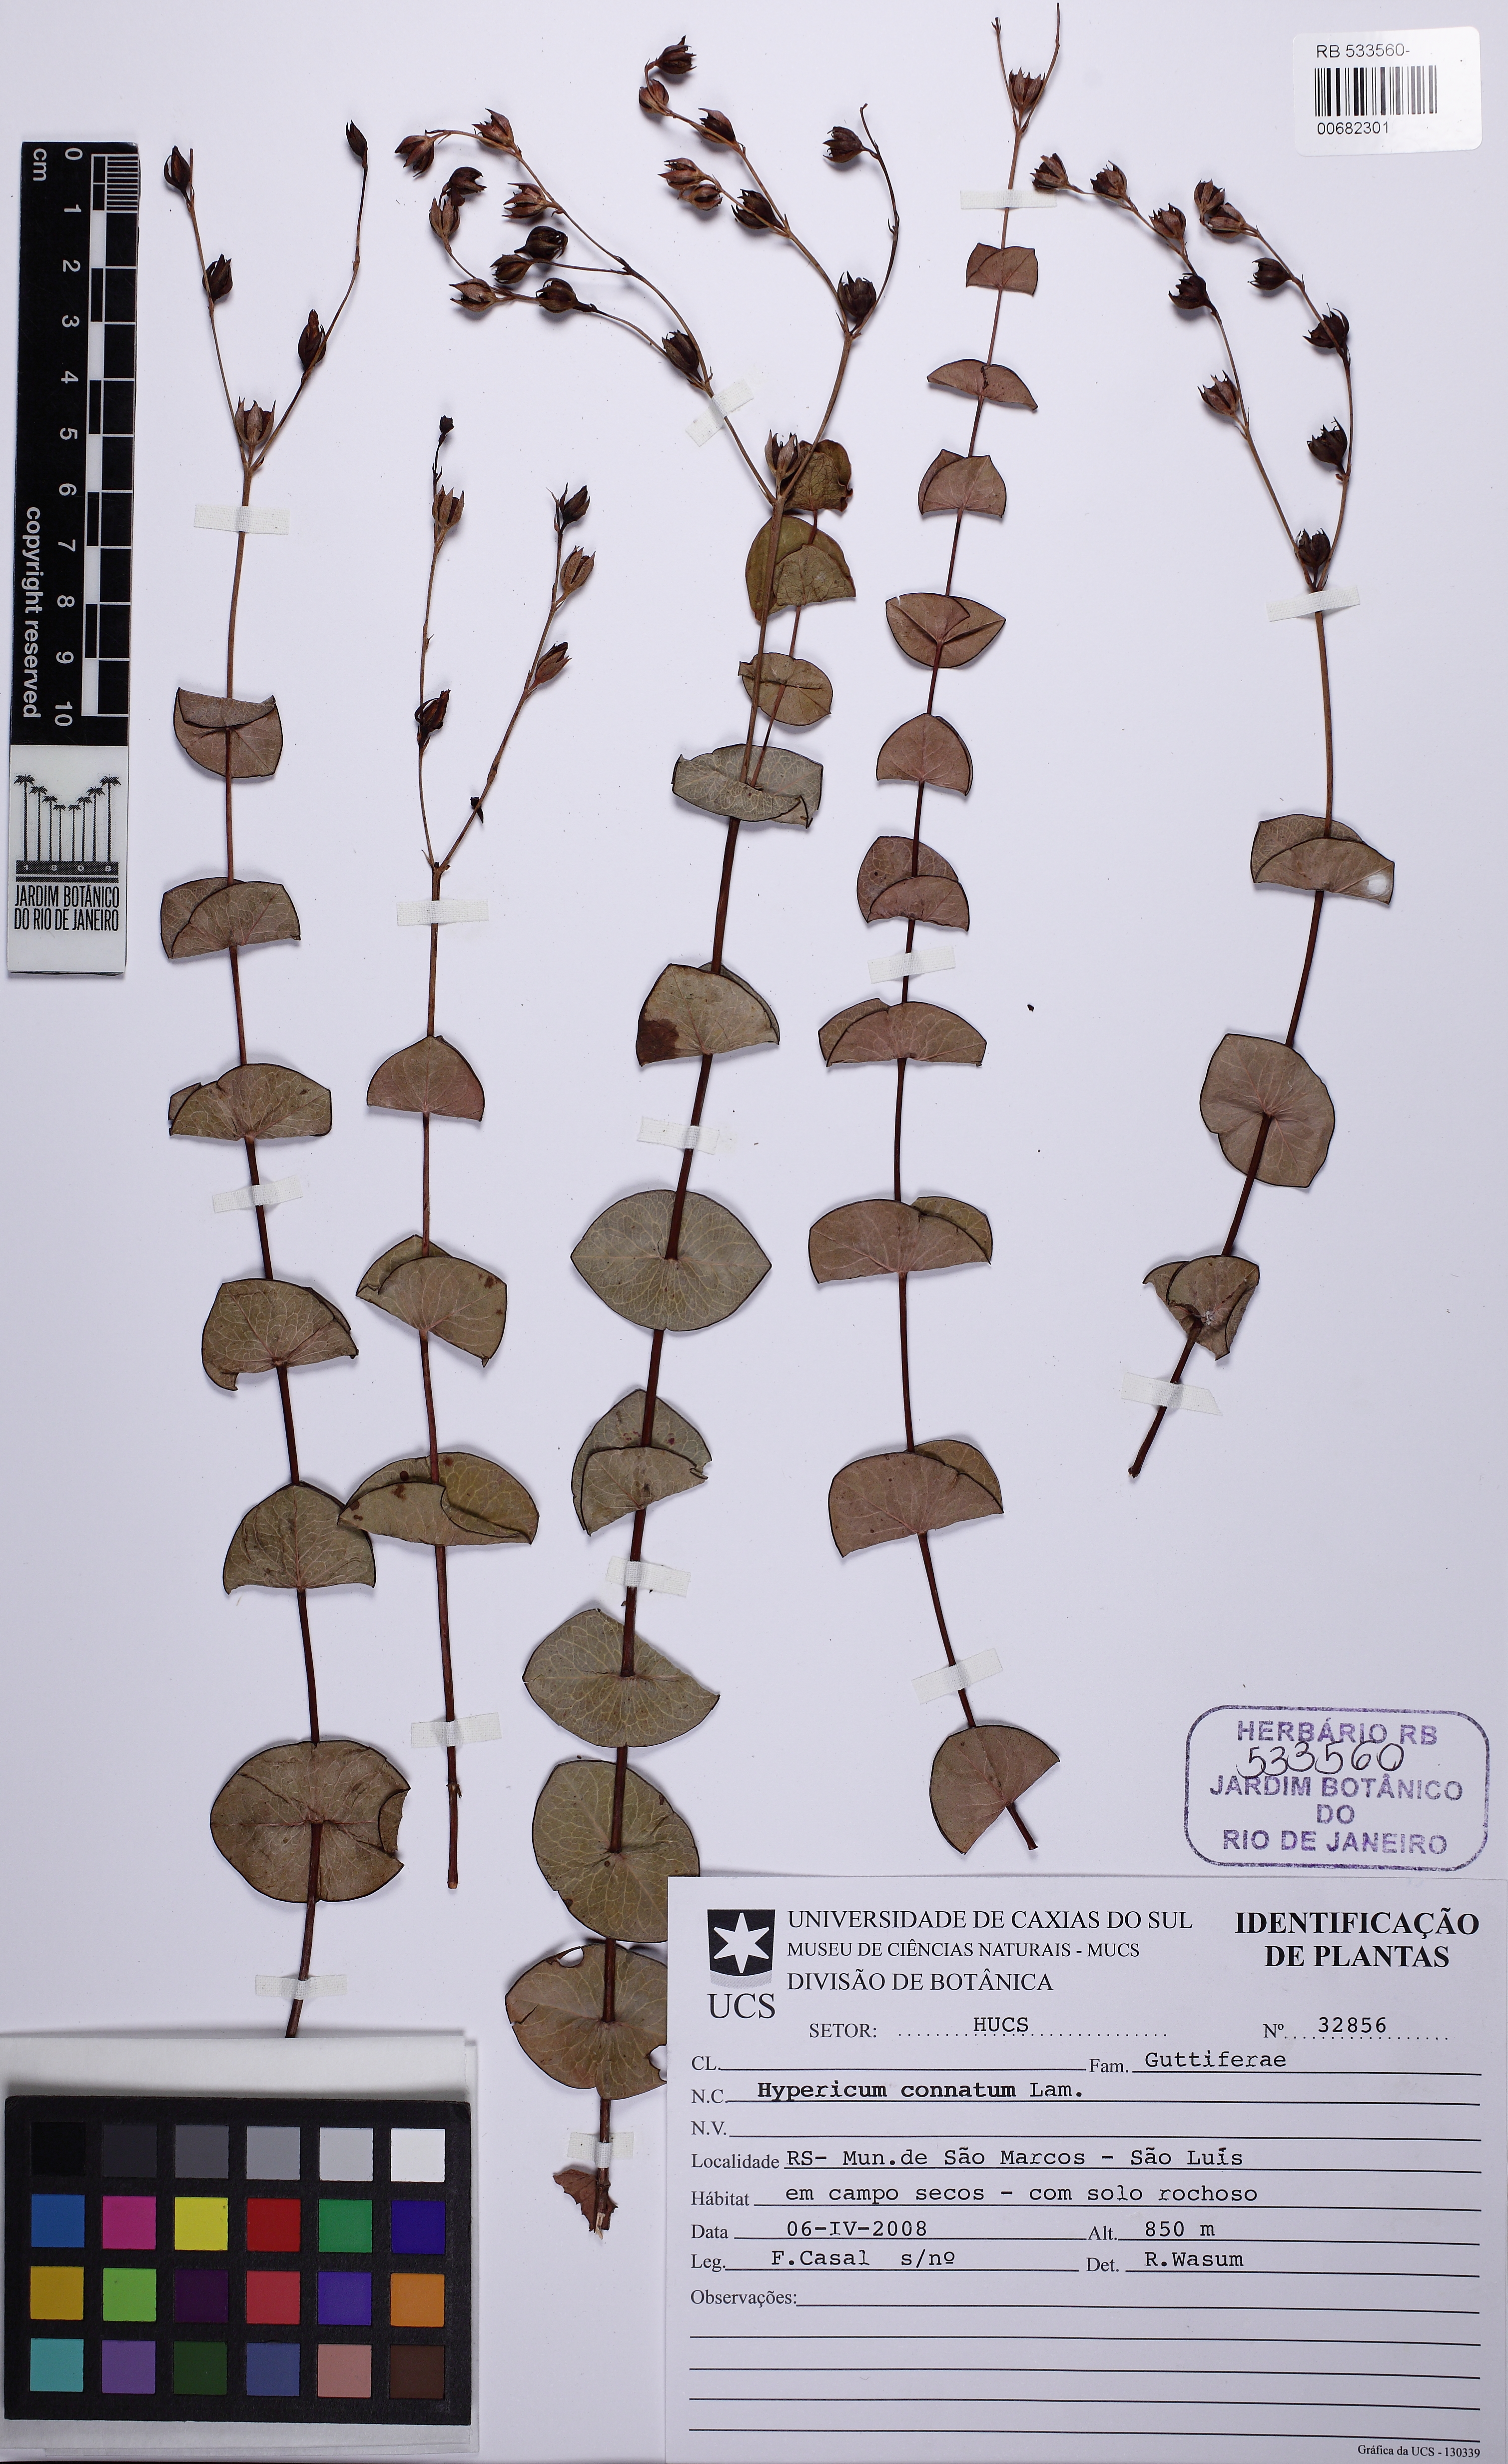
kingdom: Plantae
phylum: Tracheophyta
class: Magnoliopsida
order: Malpighiales
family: Hypericaceae
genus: Hypericum
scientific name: Hypericum connatum
